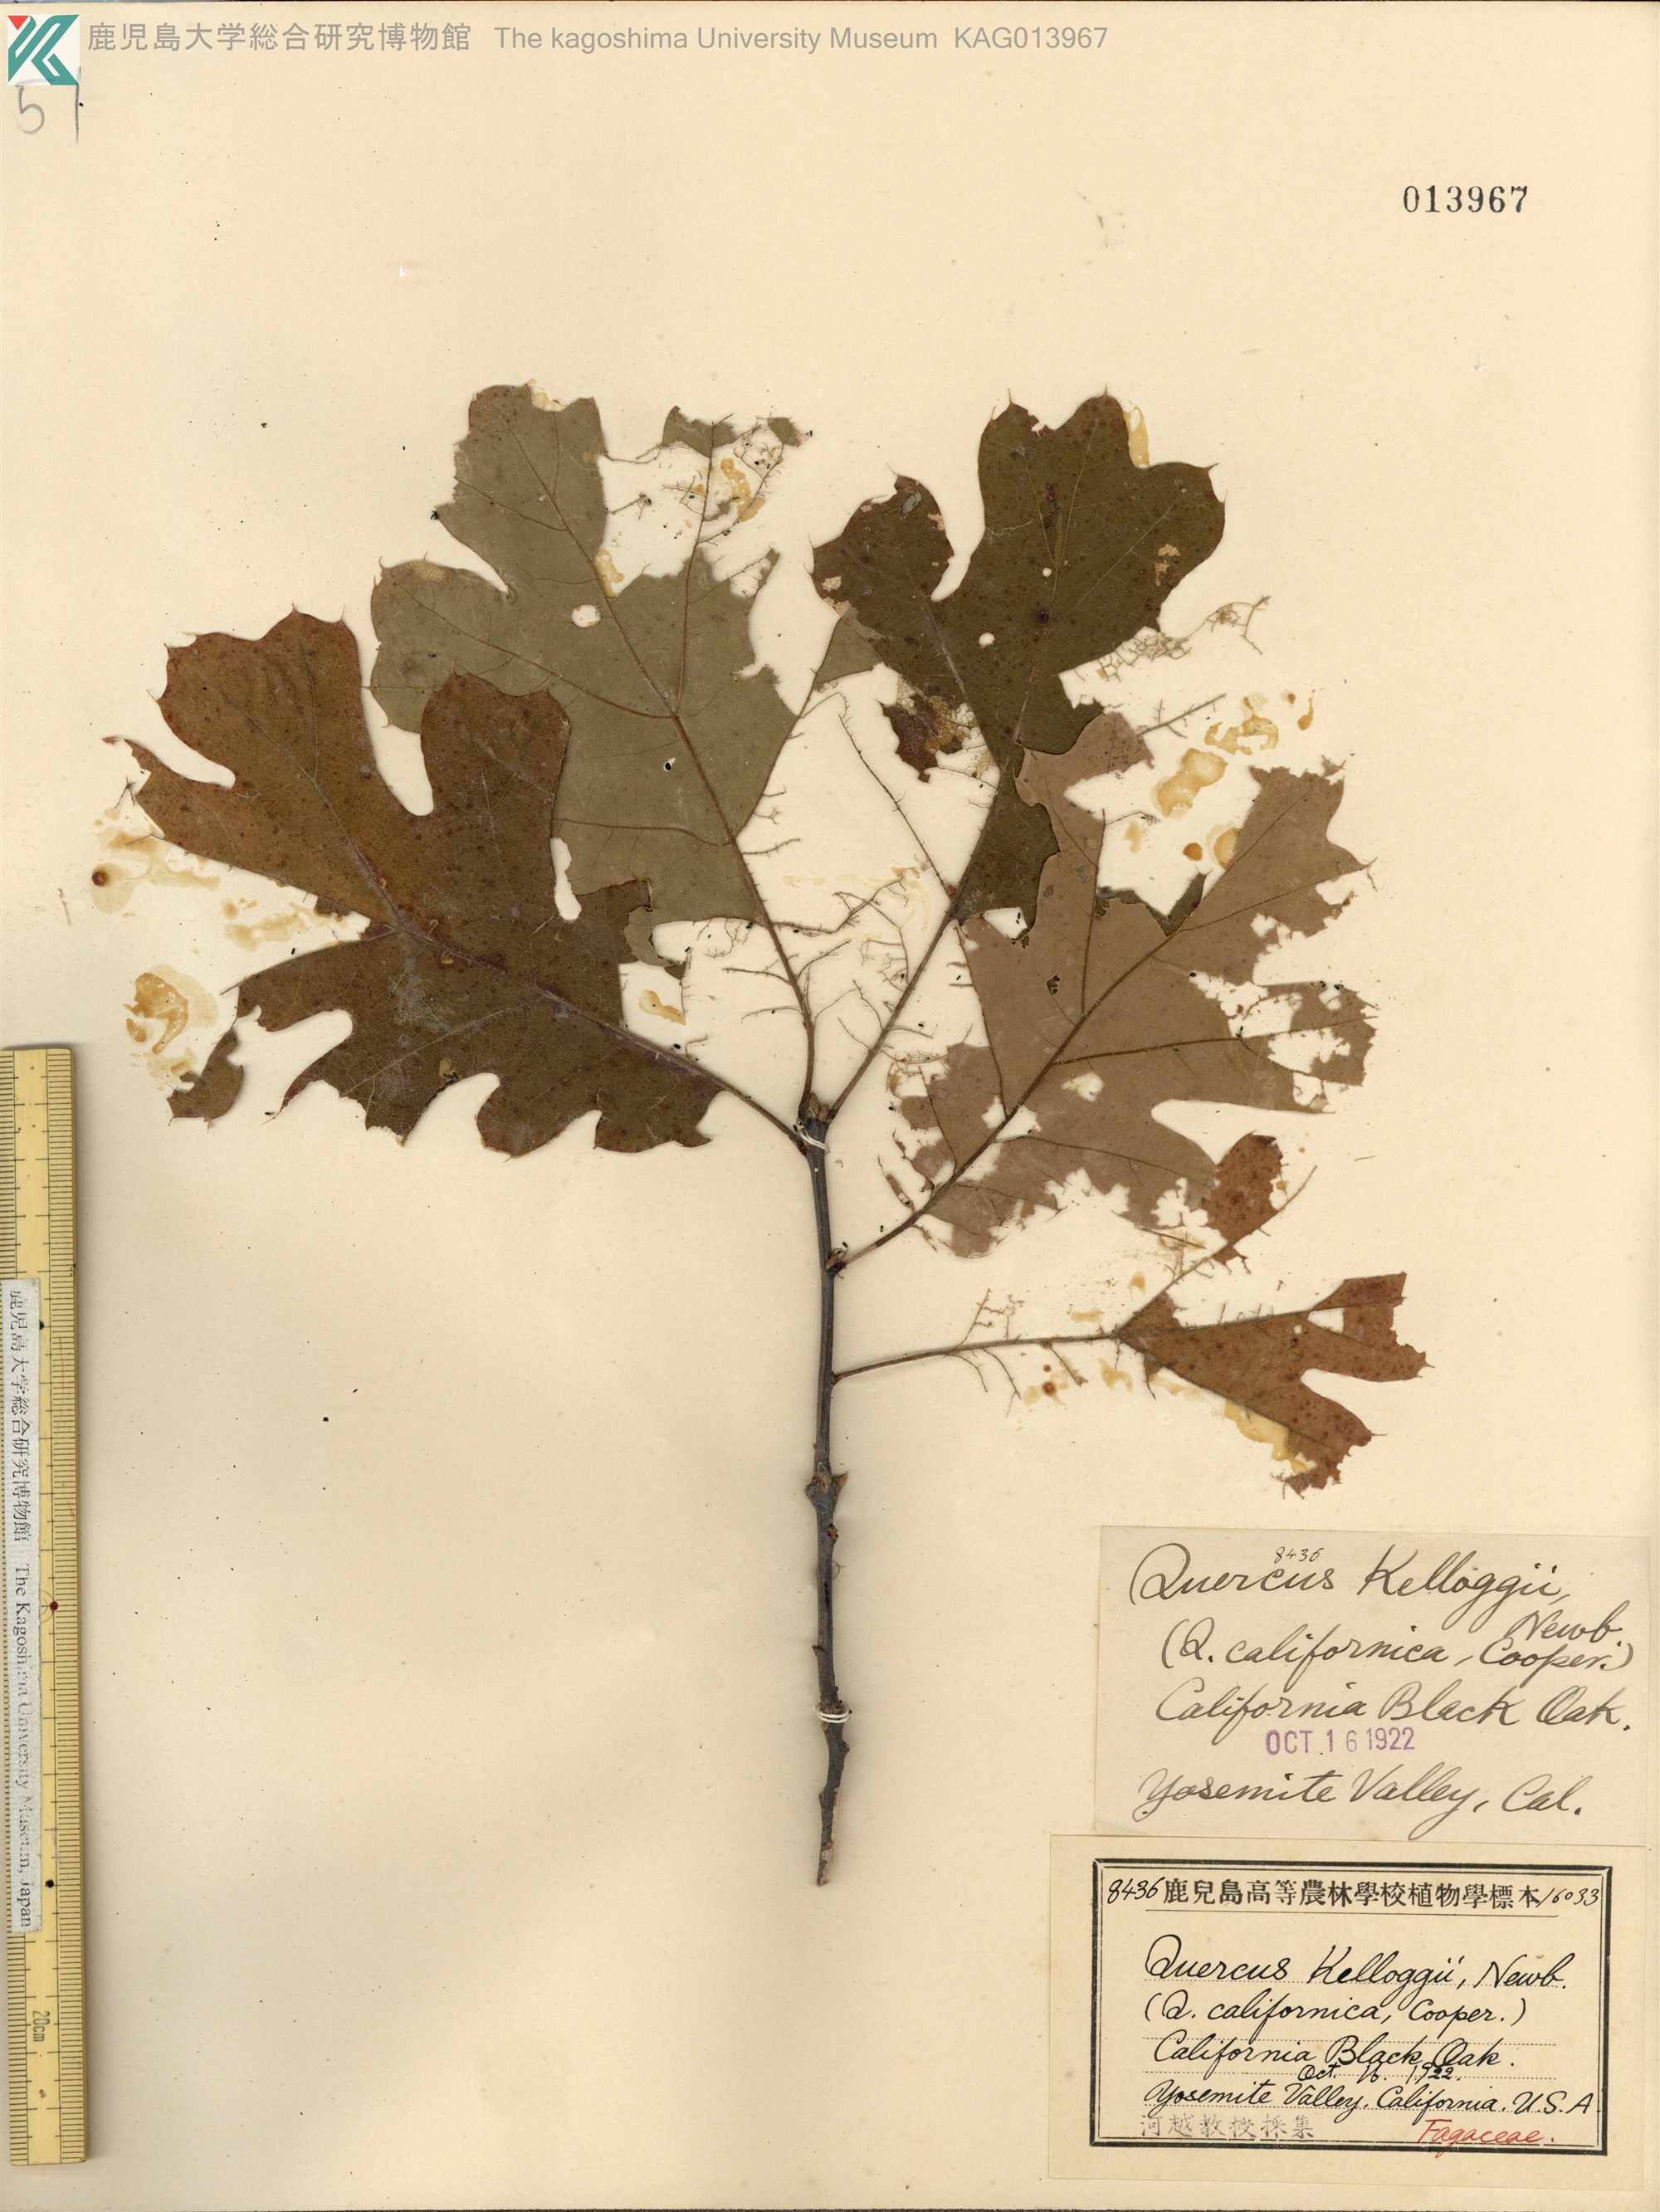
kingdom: Plantae
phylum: Tracheophyta
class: Magnoliopsida
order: Fagales
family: Fagaceae
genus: Quercus
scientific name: Quercus kelloggii
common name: California black oak
